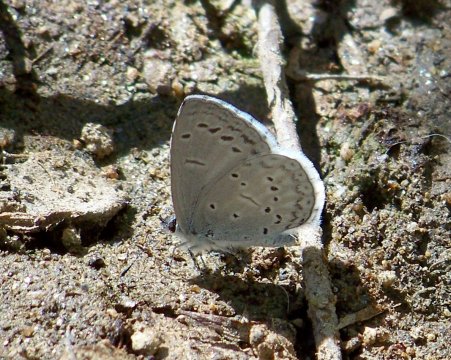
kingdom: Animalia
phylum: Arthropoda
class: Insecta
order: Lepidoptera
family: Lycaenidae
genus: Celastrina
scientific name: Celastrina ladon
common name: Echo Azure
